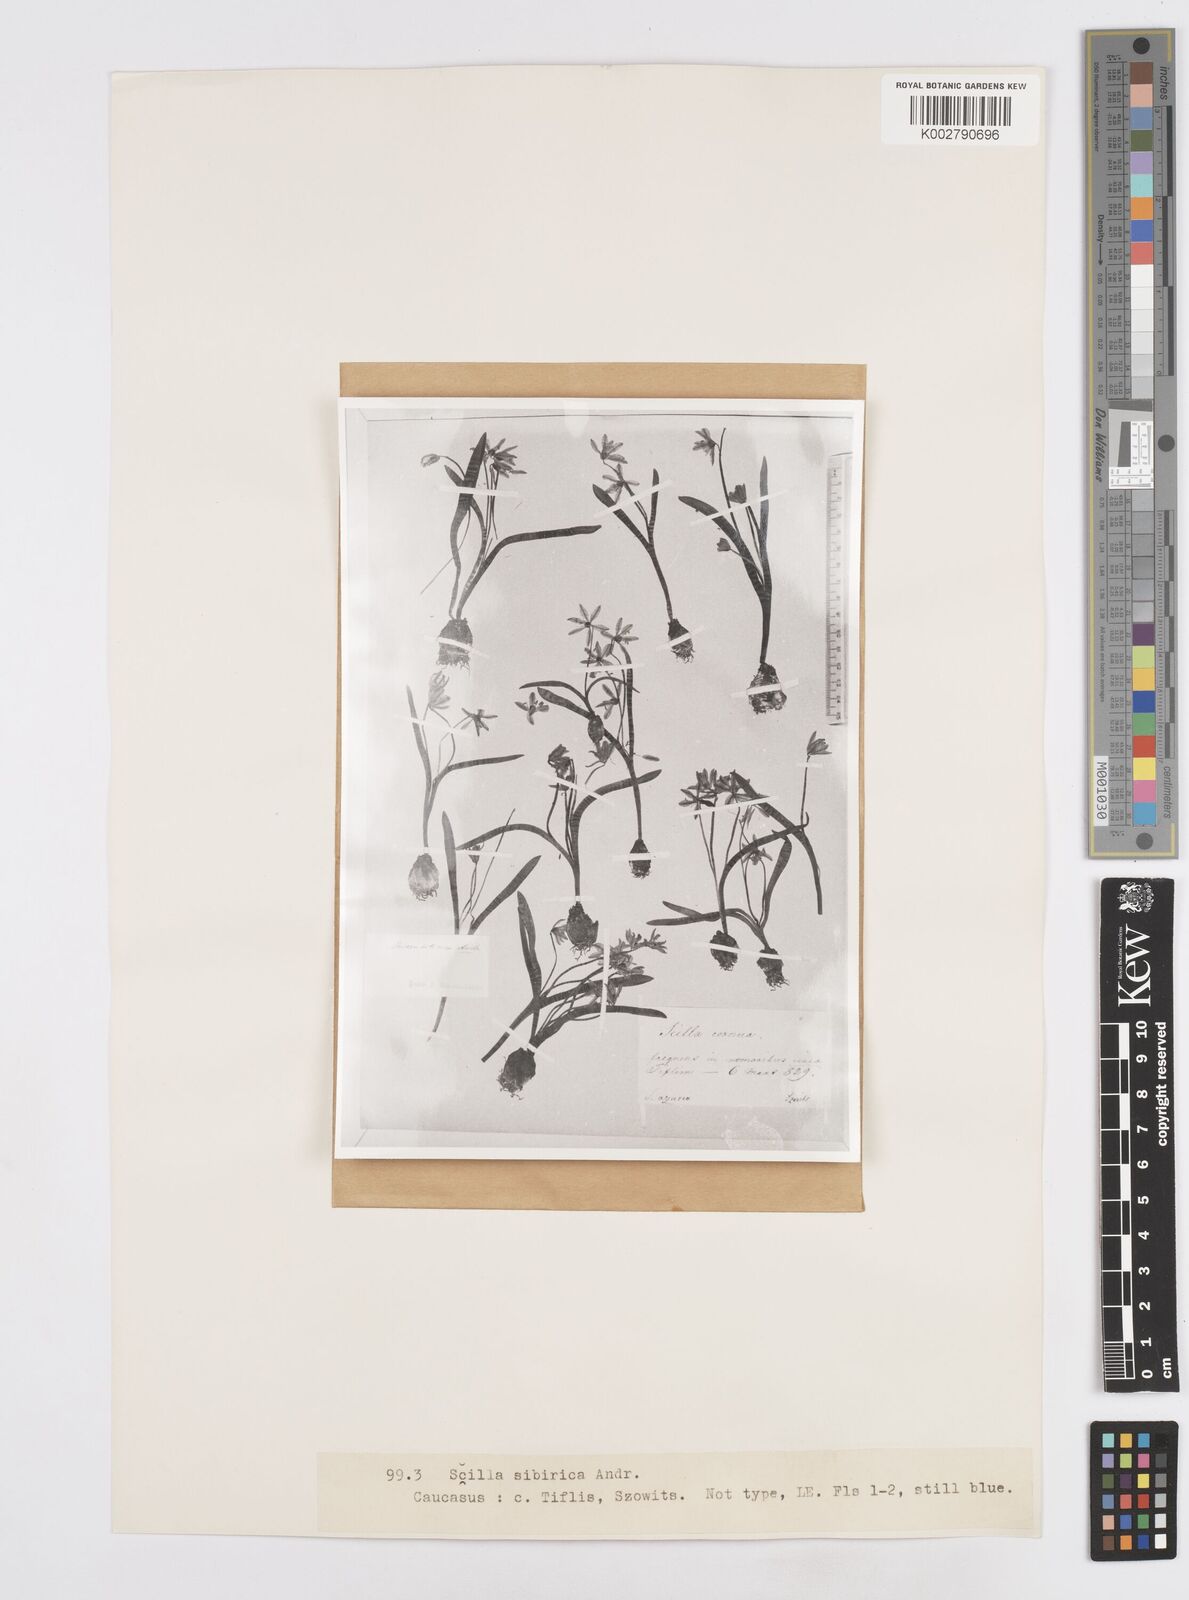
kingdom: Plantae
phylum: Tracheophyta
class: Liliopsida
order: Asparagales
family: Asparagaceae
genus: Scilla
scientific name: Scilla siberica
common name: Siberian squill
